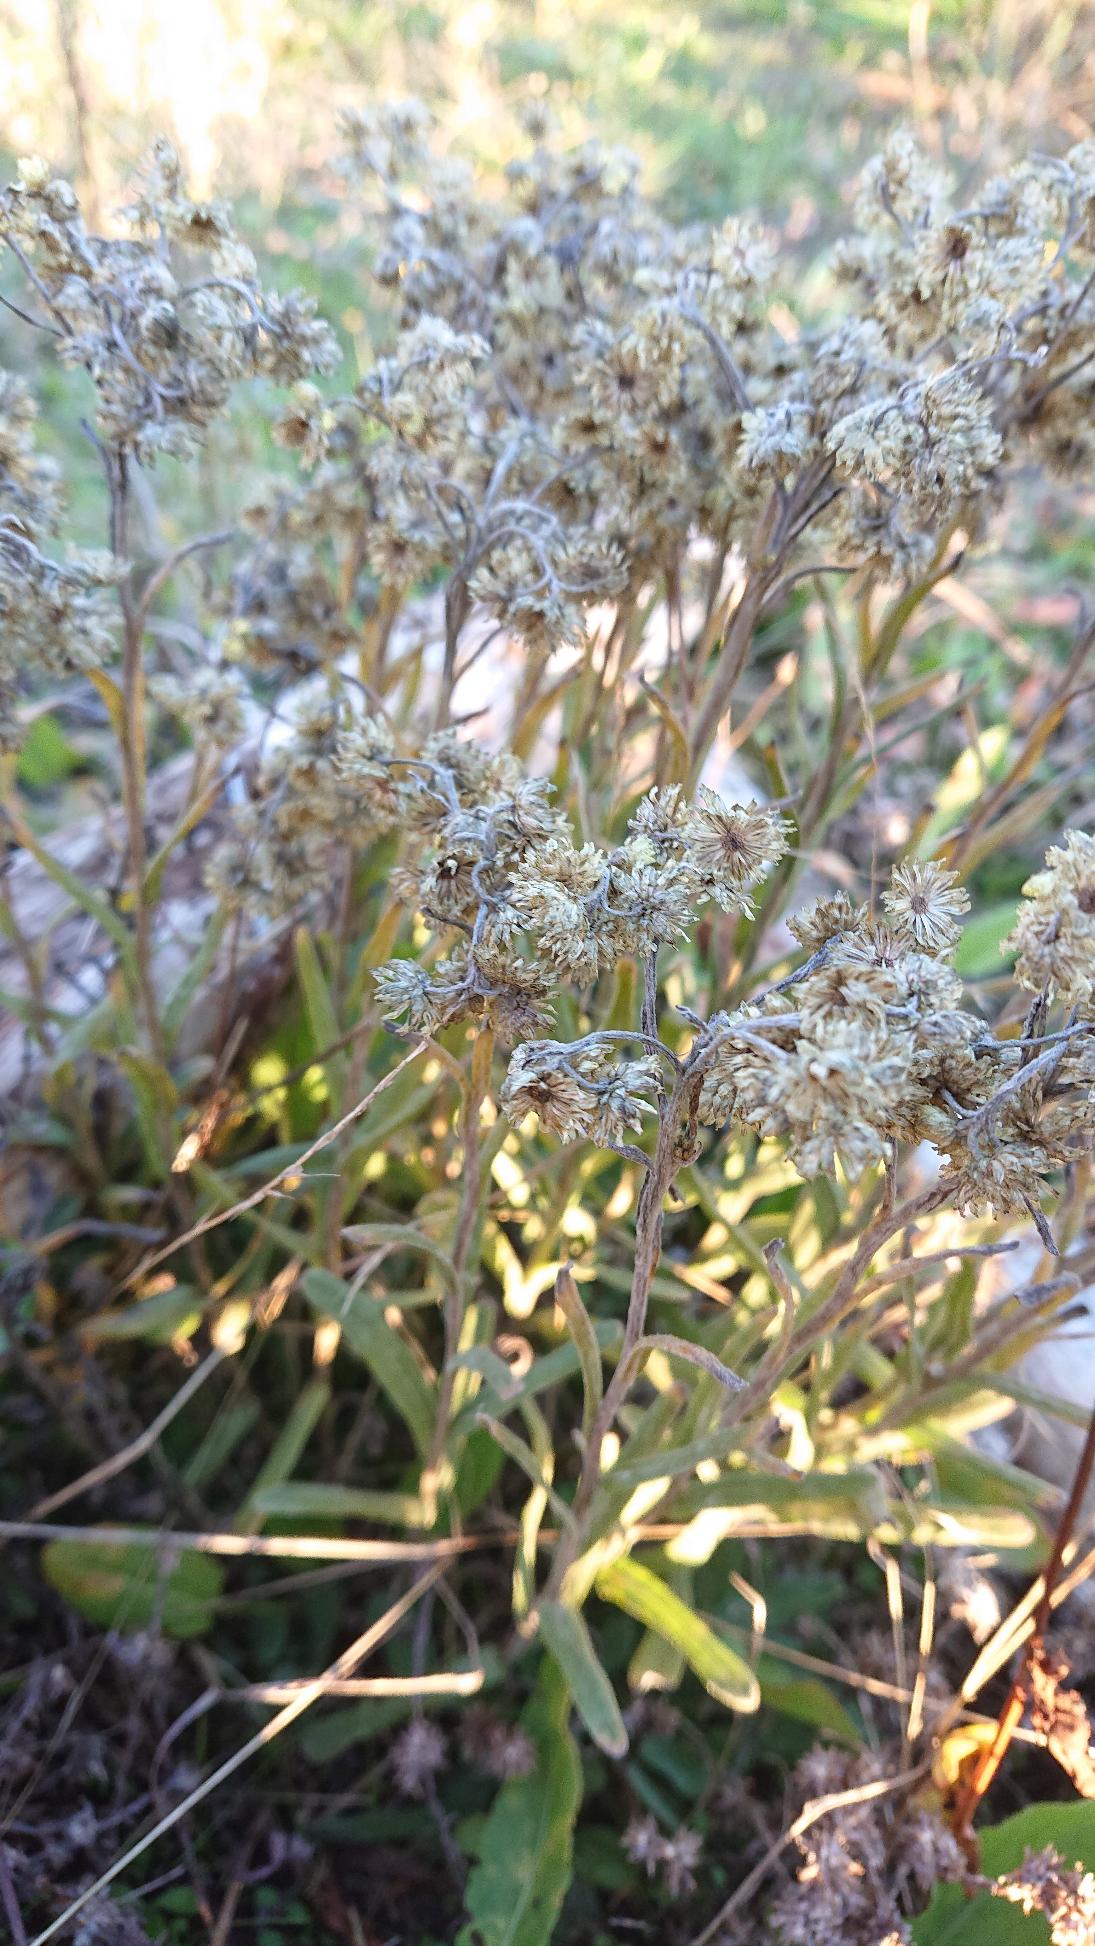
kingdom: Plantae
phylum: Tracheophyta
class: Magnoliopsida
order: Asterales
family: Asteraceae
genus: Helichrysum
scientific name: Helichrysum arenarium
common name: Gul evighedsblomst
